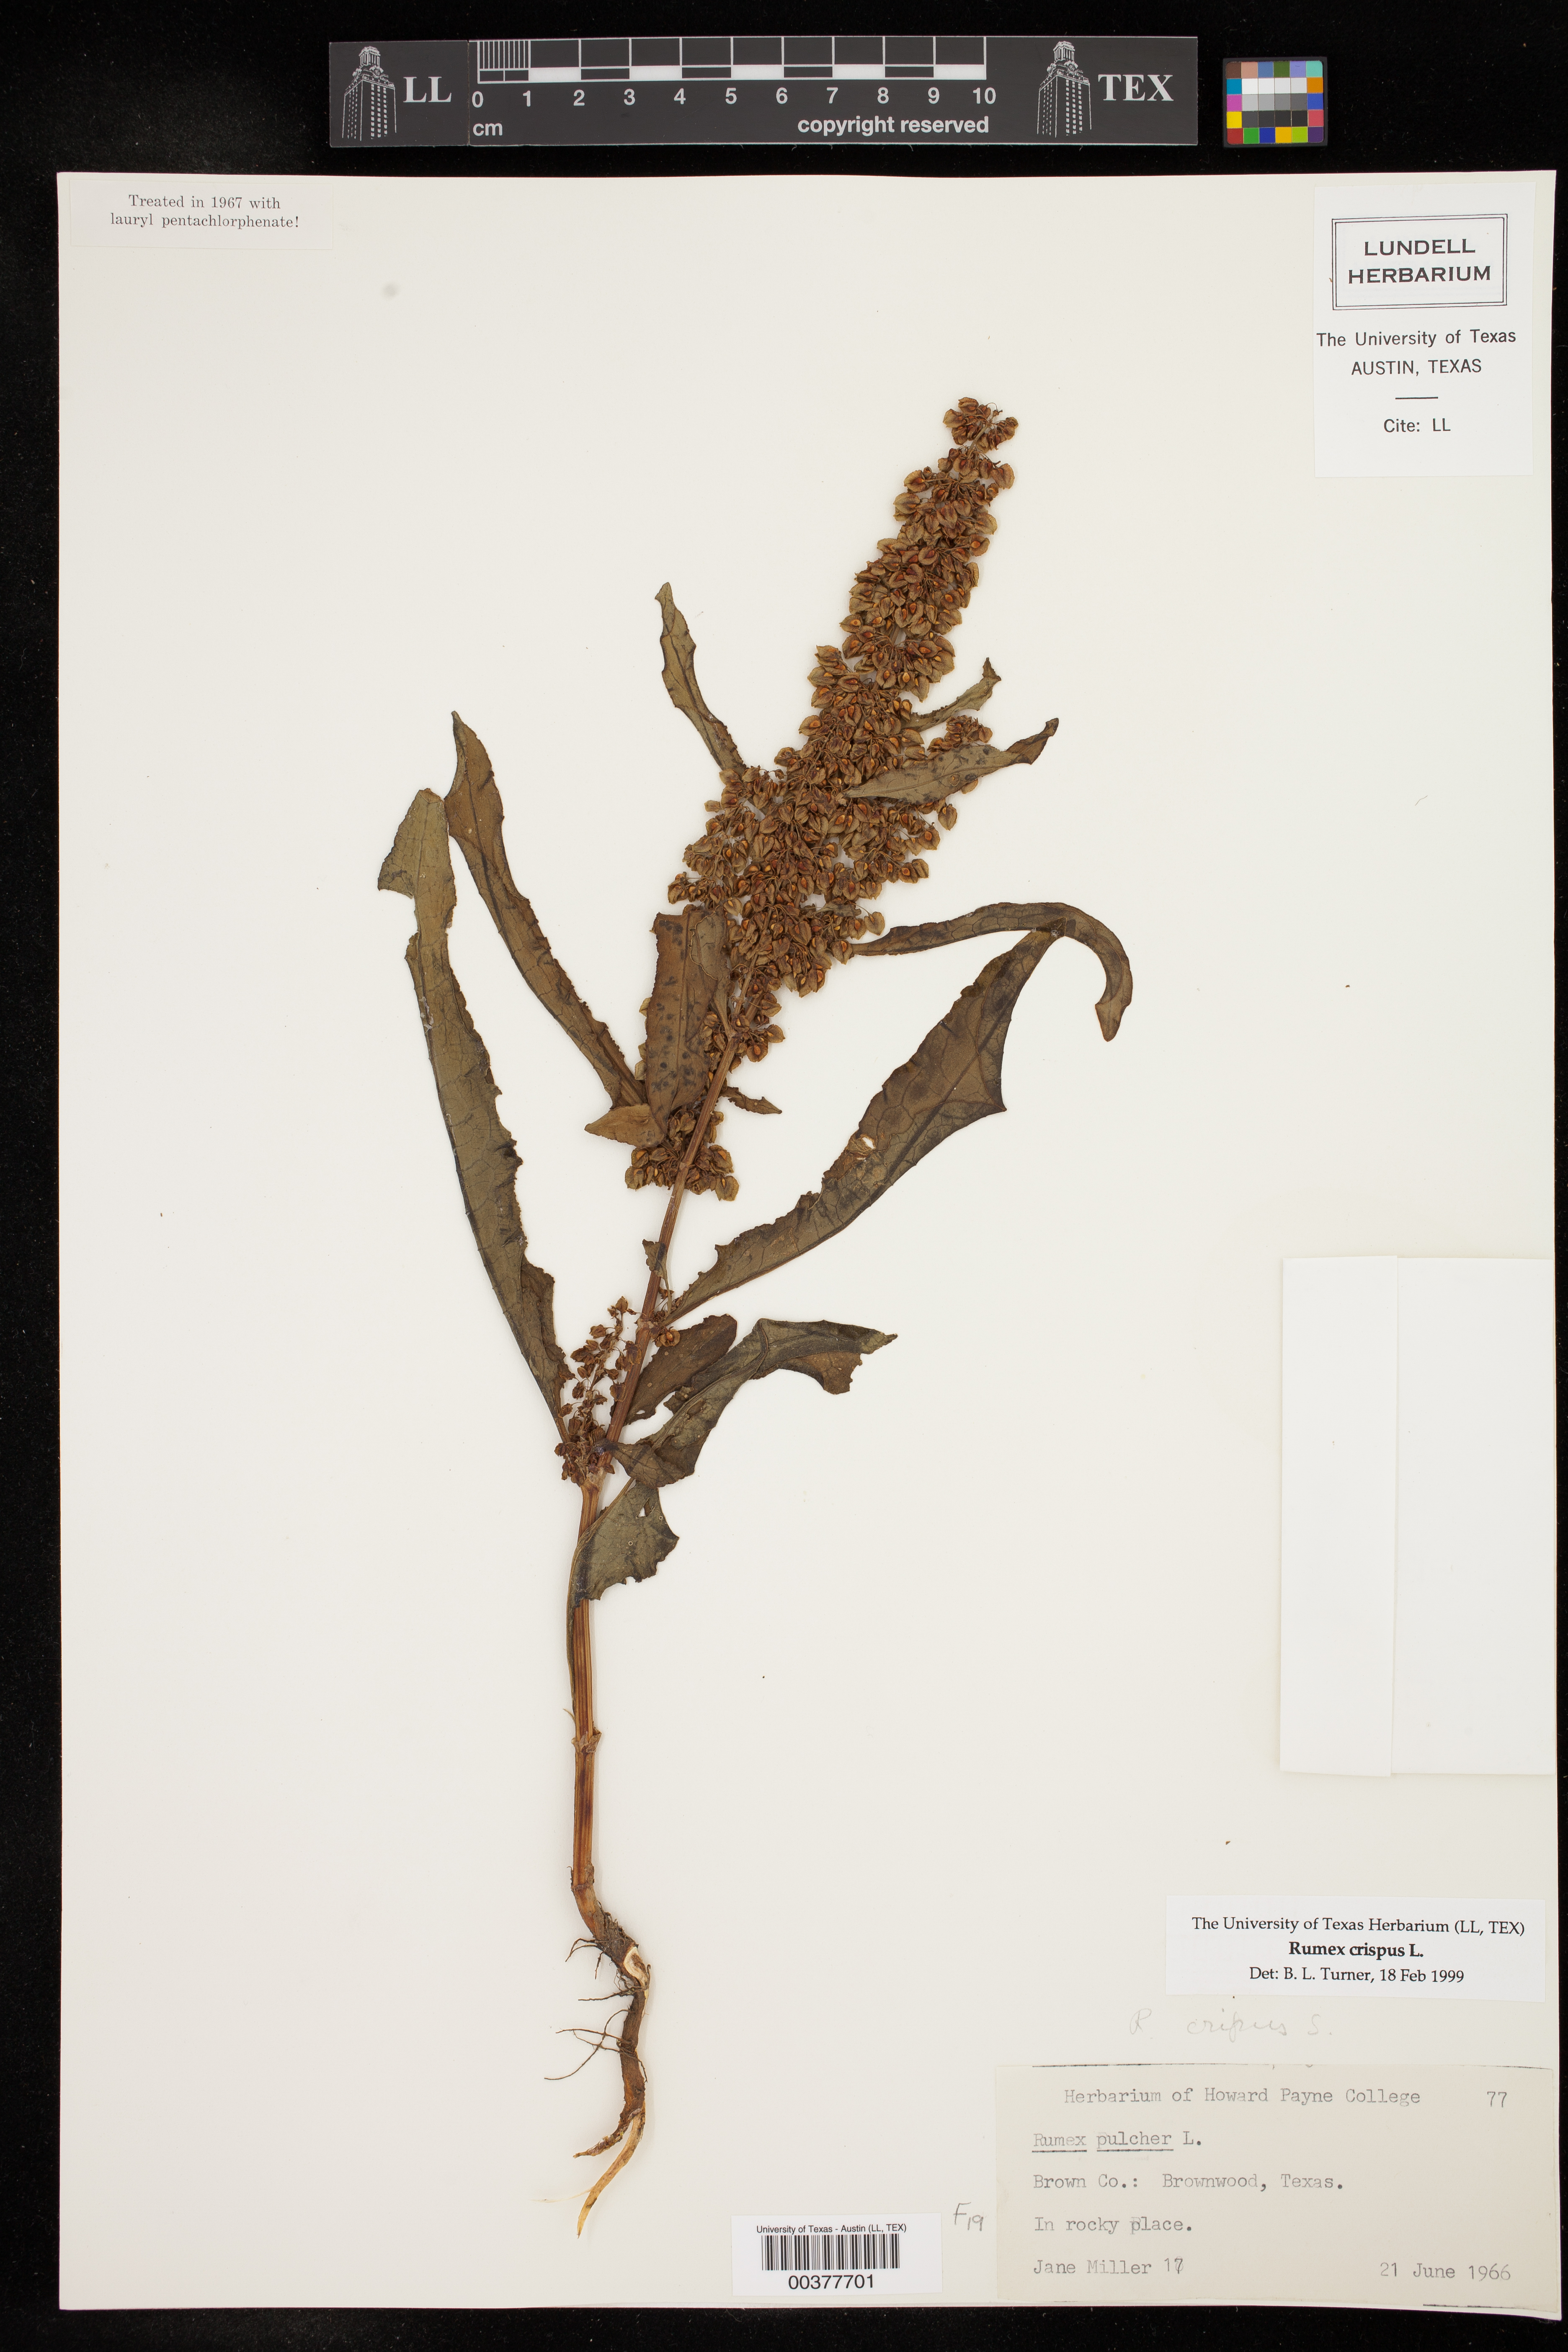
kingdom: Plantae
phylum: Tracheophyta
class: Magnoliopsida
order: Caryophyllales
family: Polygonaceae
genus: Rumex
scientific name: Rumex crispus
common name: Curled dock
